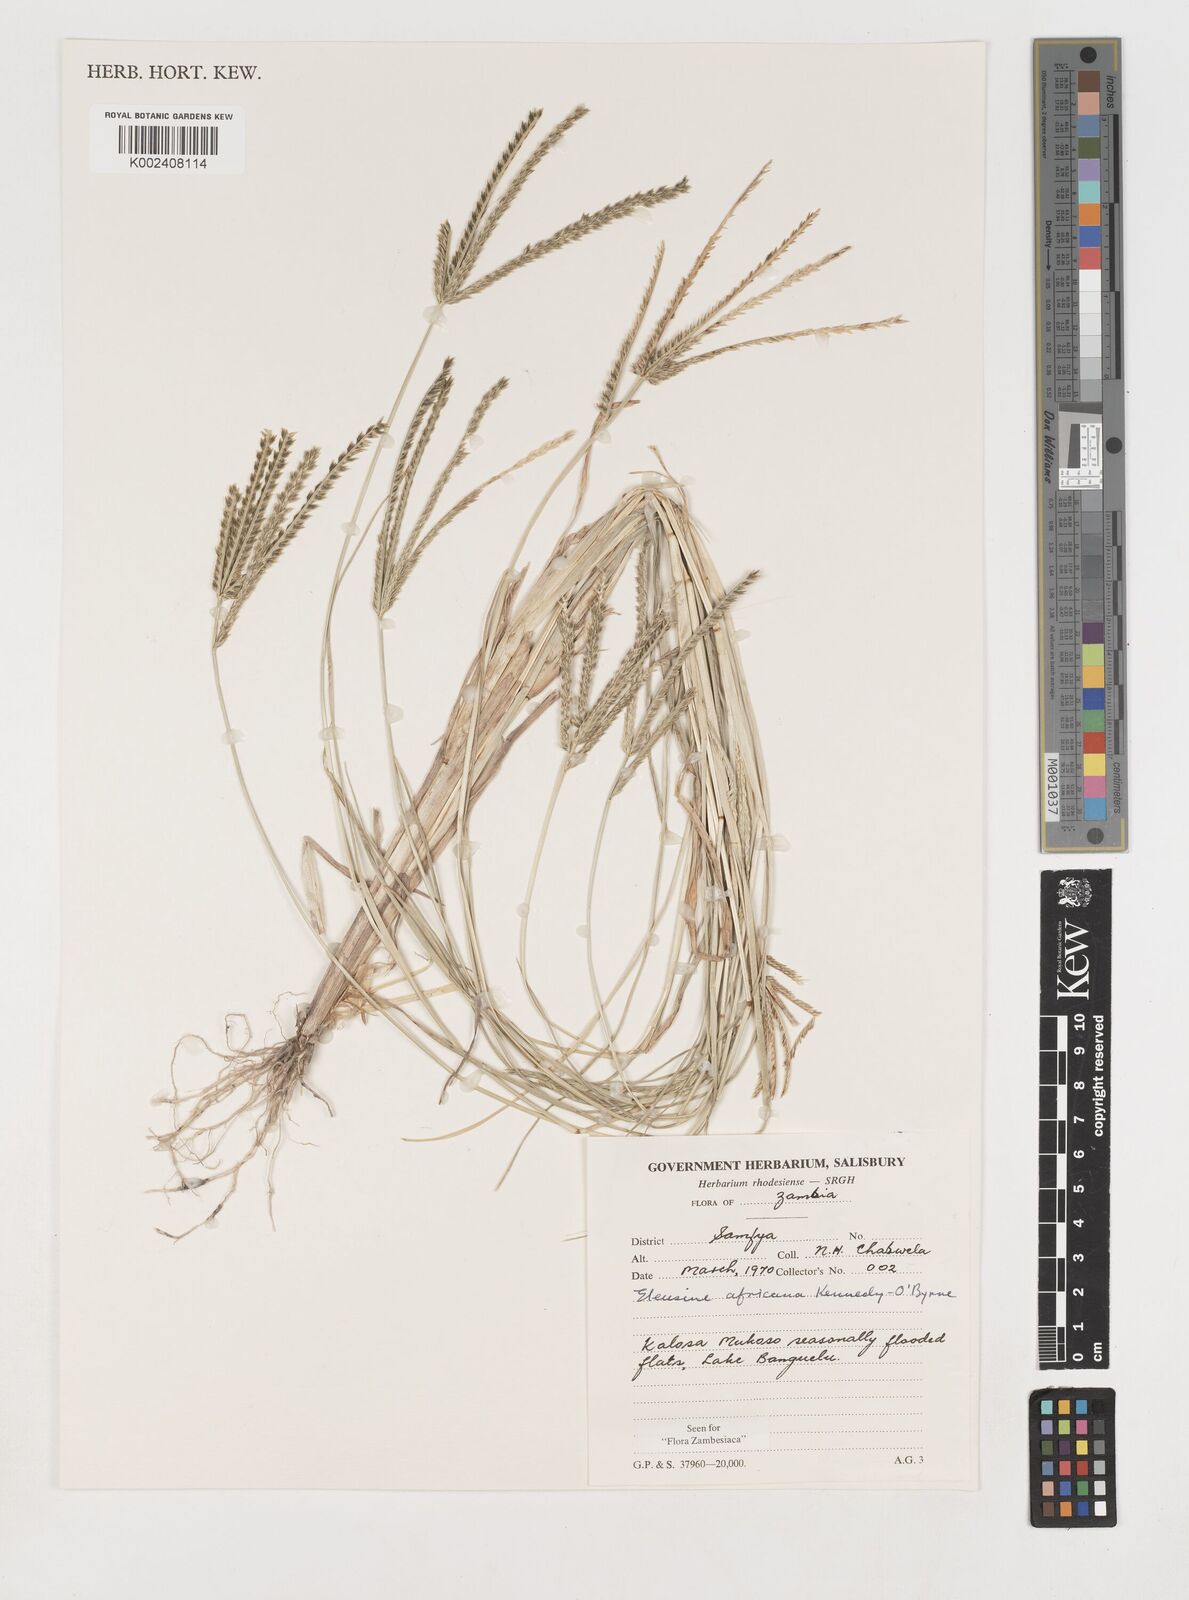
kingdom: Plantae
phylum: Tracheophyta
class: Liliopsida
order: Poales
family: Poaceae
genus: Eleusine
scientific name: Eleusine africana
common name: Wild african finger millet
